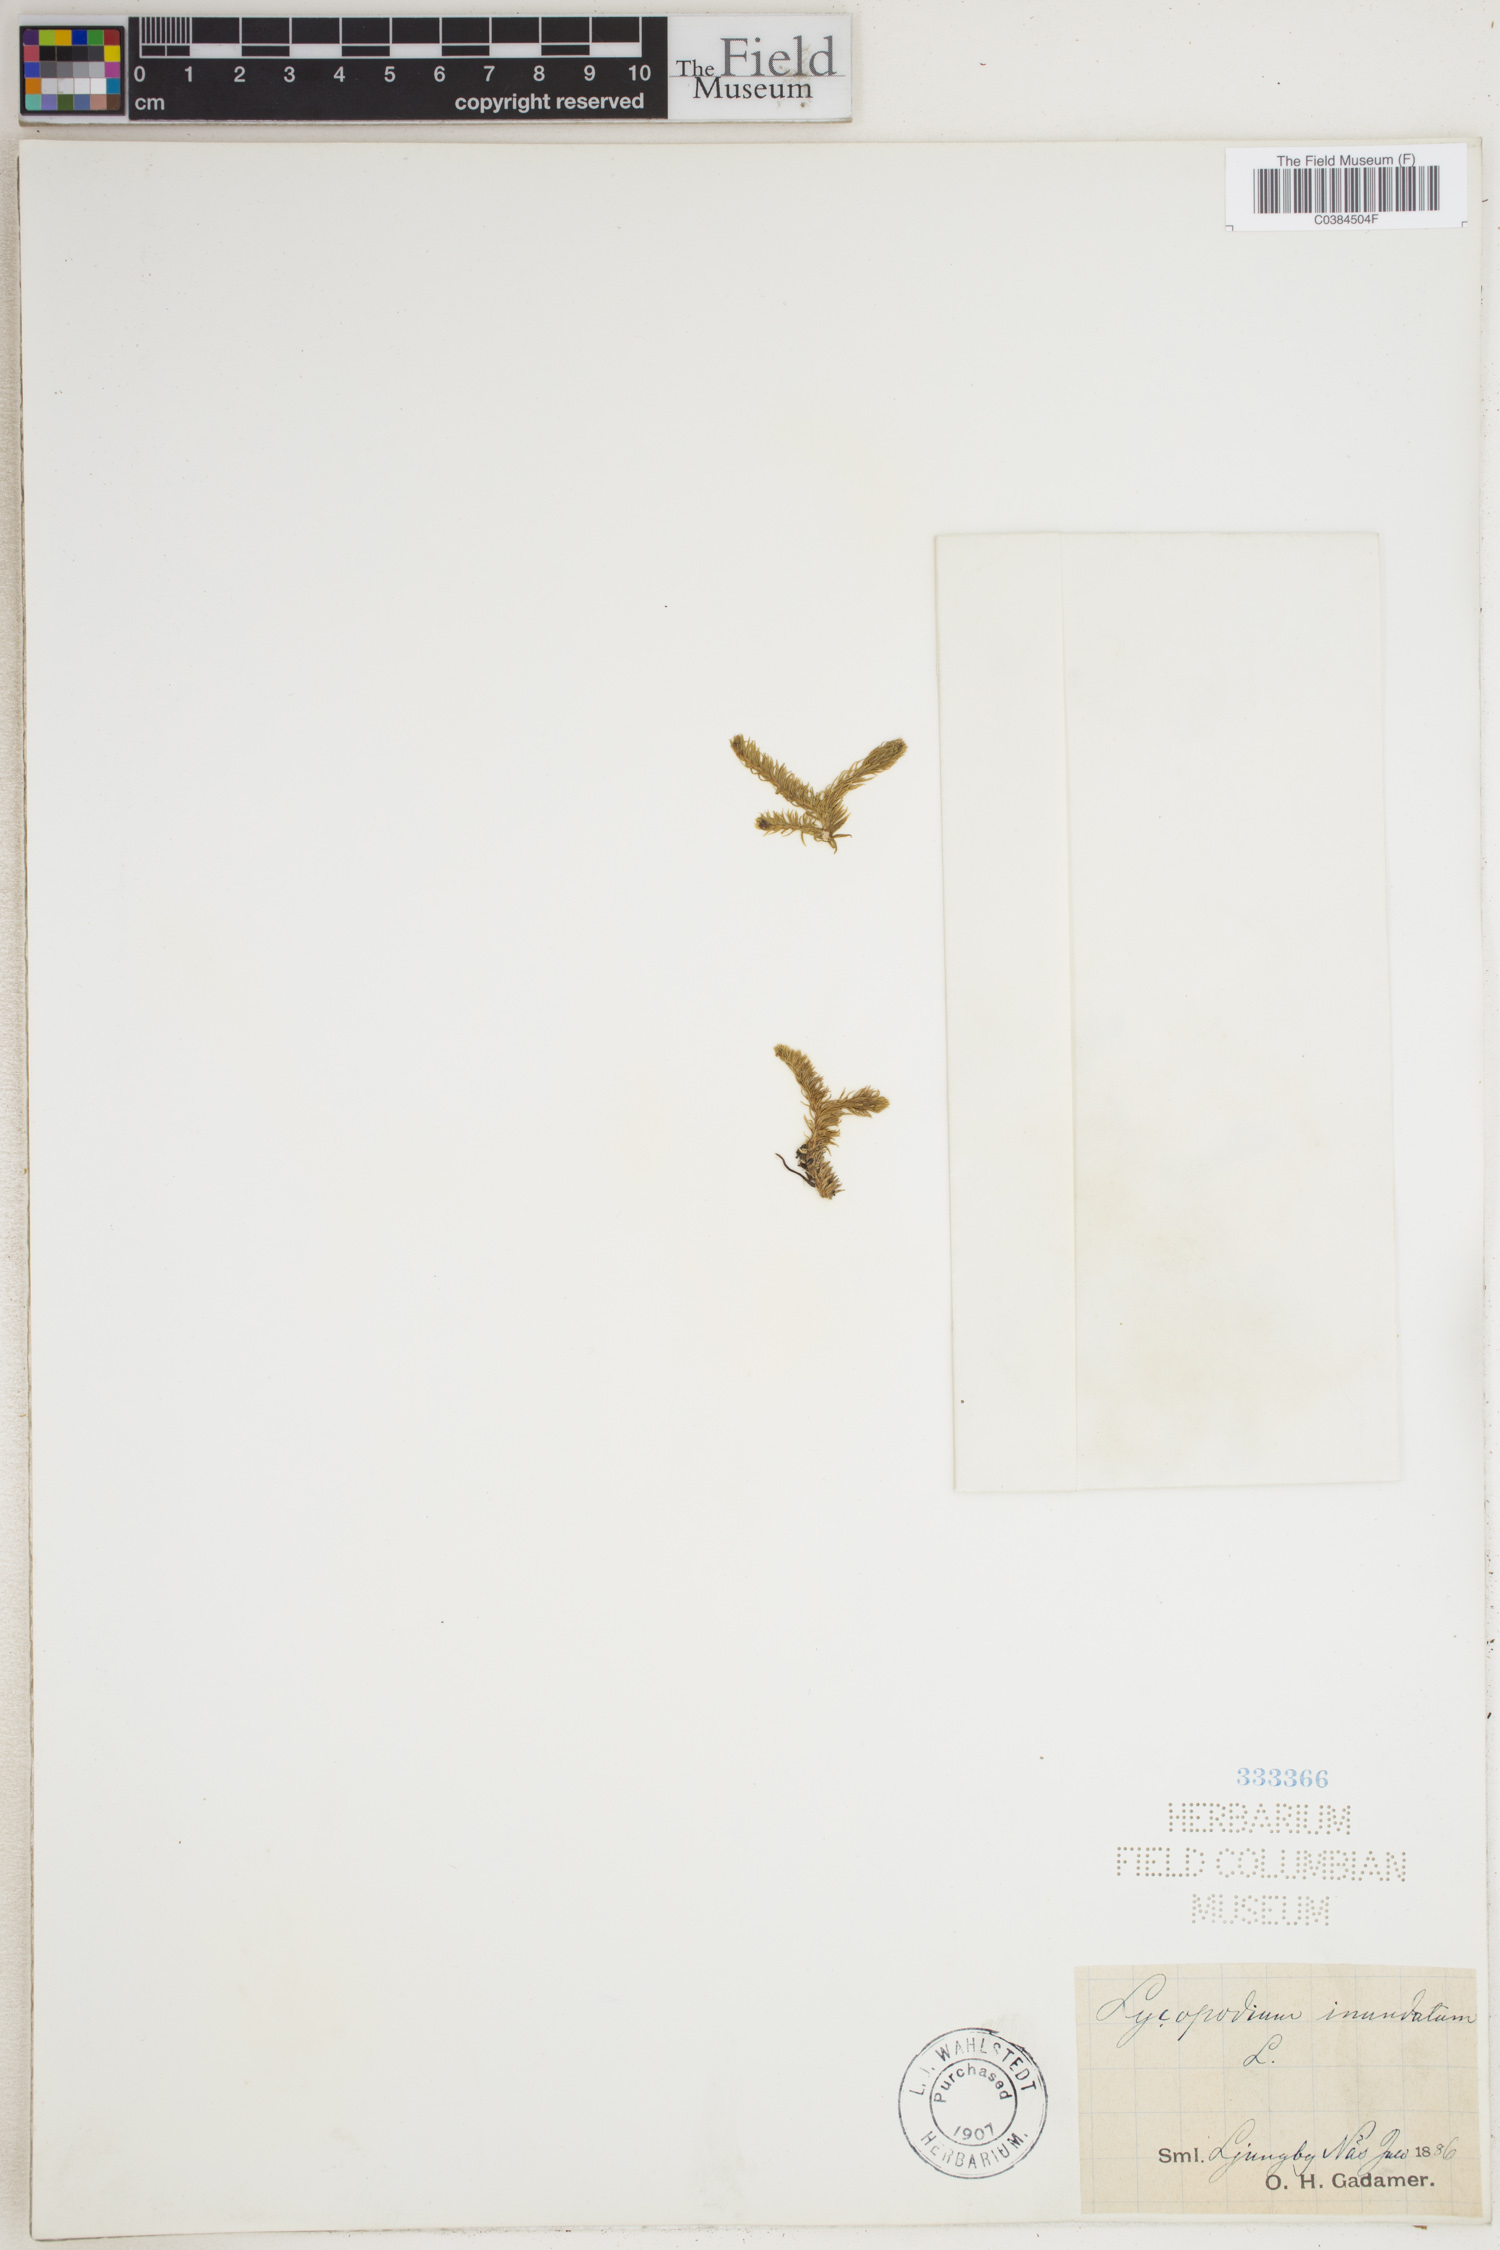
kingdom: Plantae
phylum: Tracheophyta
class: Lycopodiopsida
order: Lycopodiales
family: Lycopodiaceae
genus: Lycopodiella
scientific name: Lycopodiella inundata
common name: Marsh clubmoss
